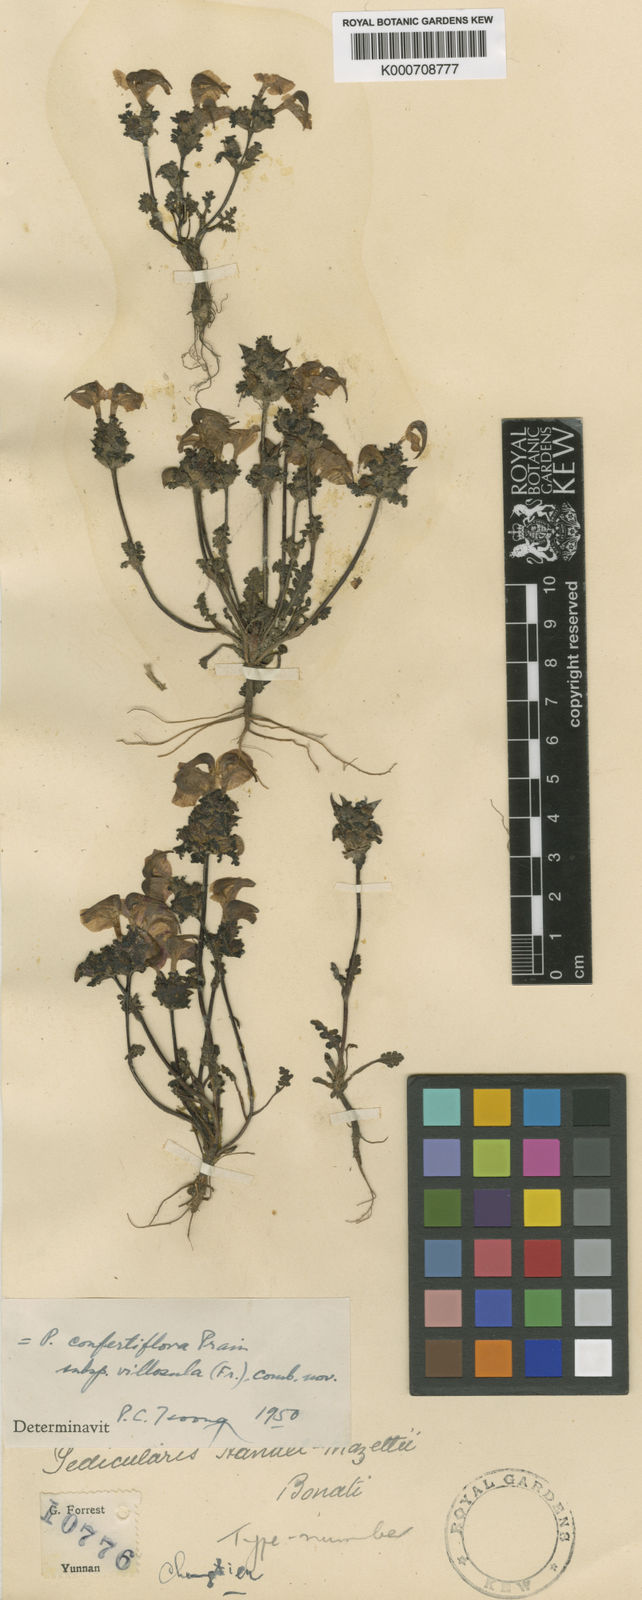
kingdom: Plantae
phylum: Tracheophyta
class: Magnoliopsida
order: Lamiales
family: Orobanchaceae
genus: Pedicularis
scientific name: Pedicularis
